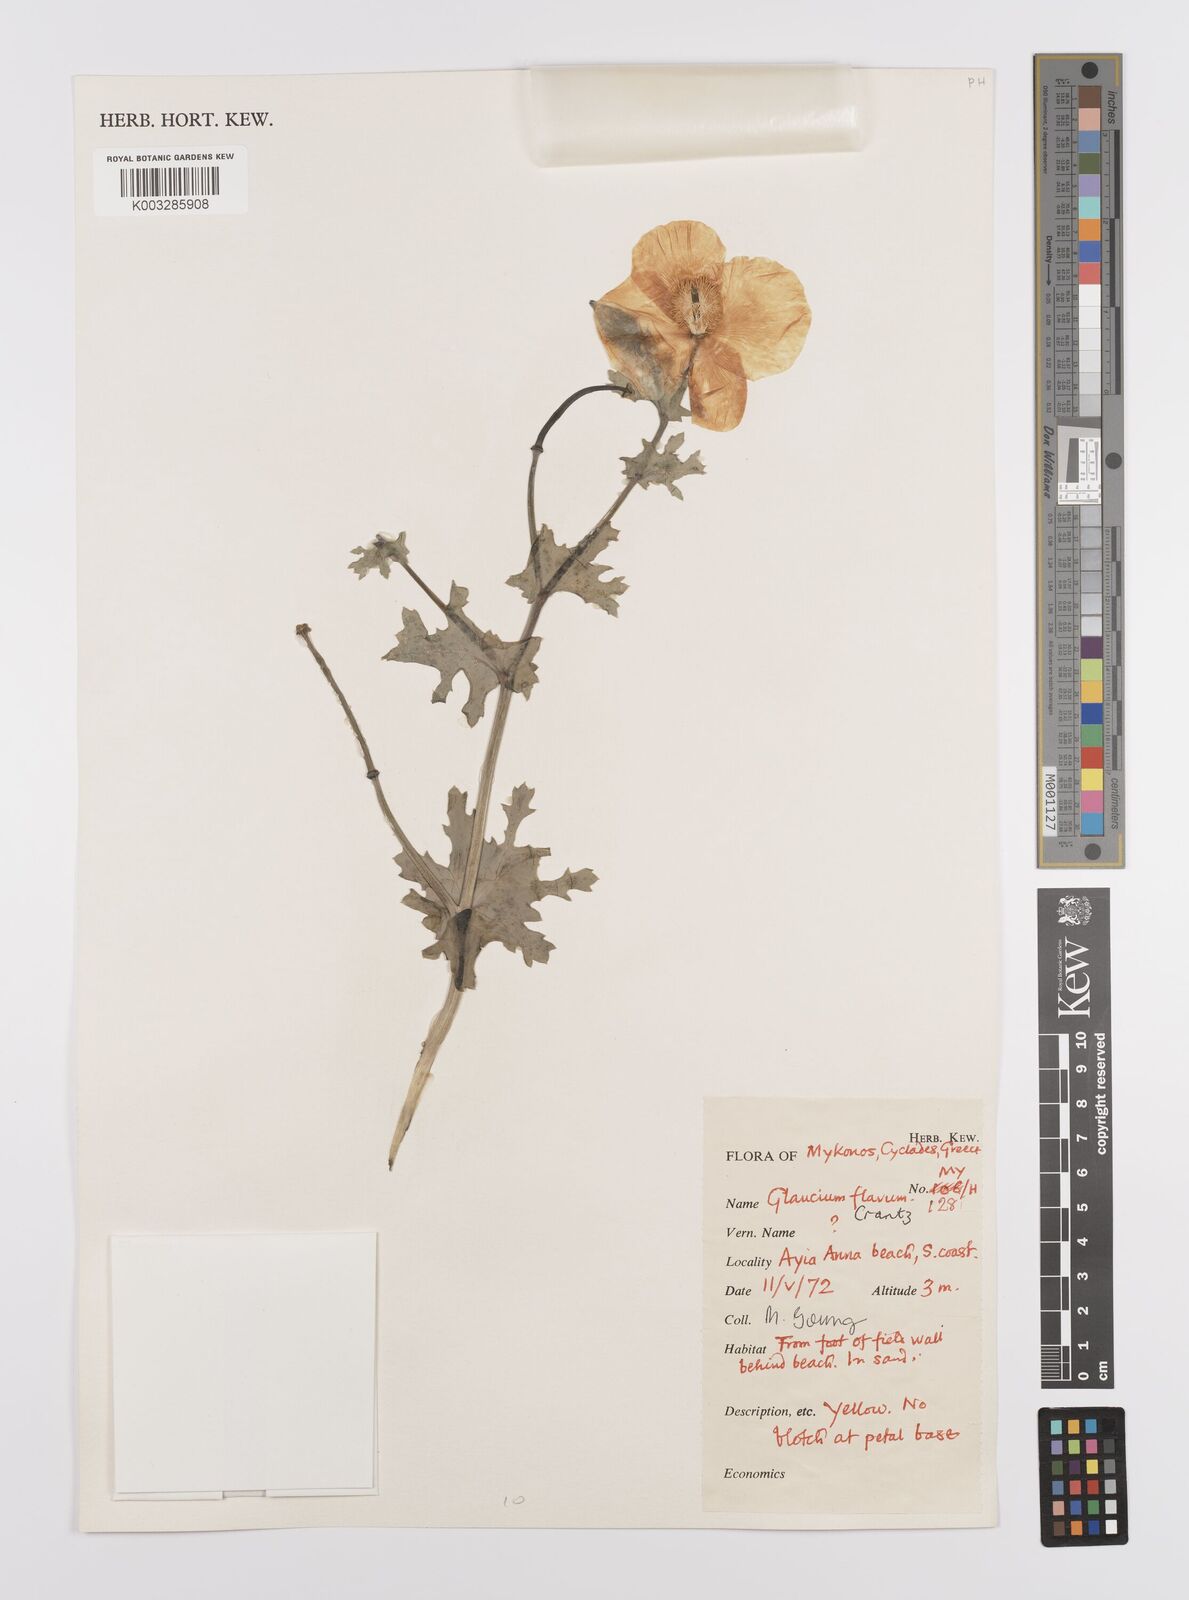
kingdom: Plantae
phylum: Tracheophyta
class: Magnoliopsida
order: Ranunculales
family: Papaveraceae
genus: Glaucium
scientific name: Glaucium flavum
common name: Yellow horned-poppy
